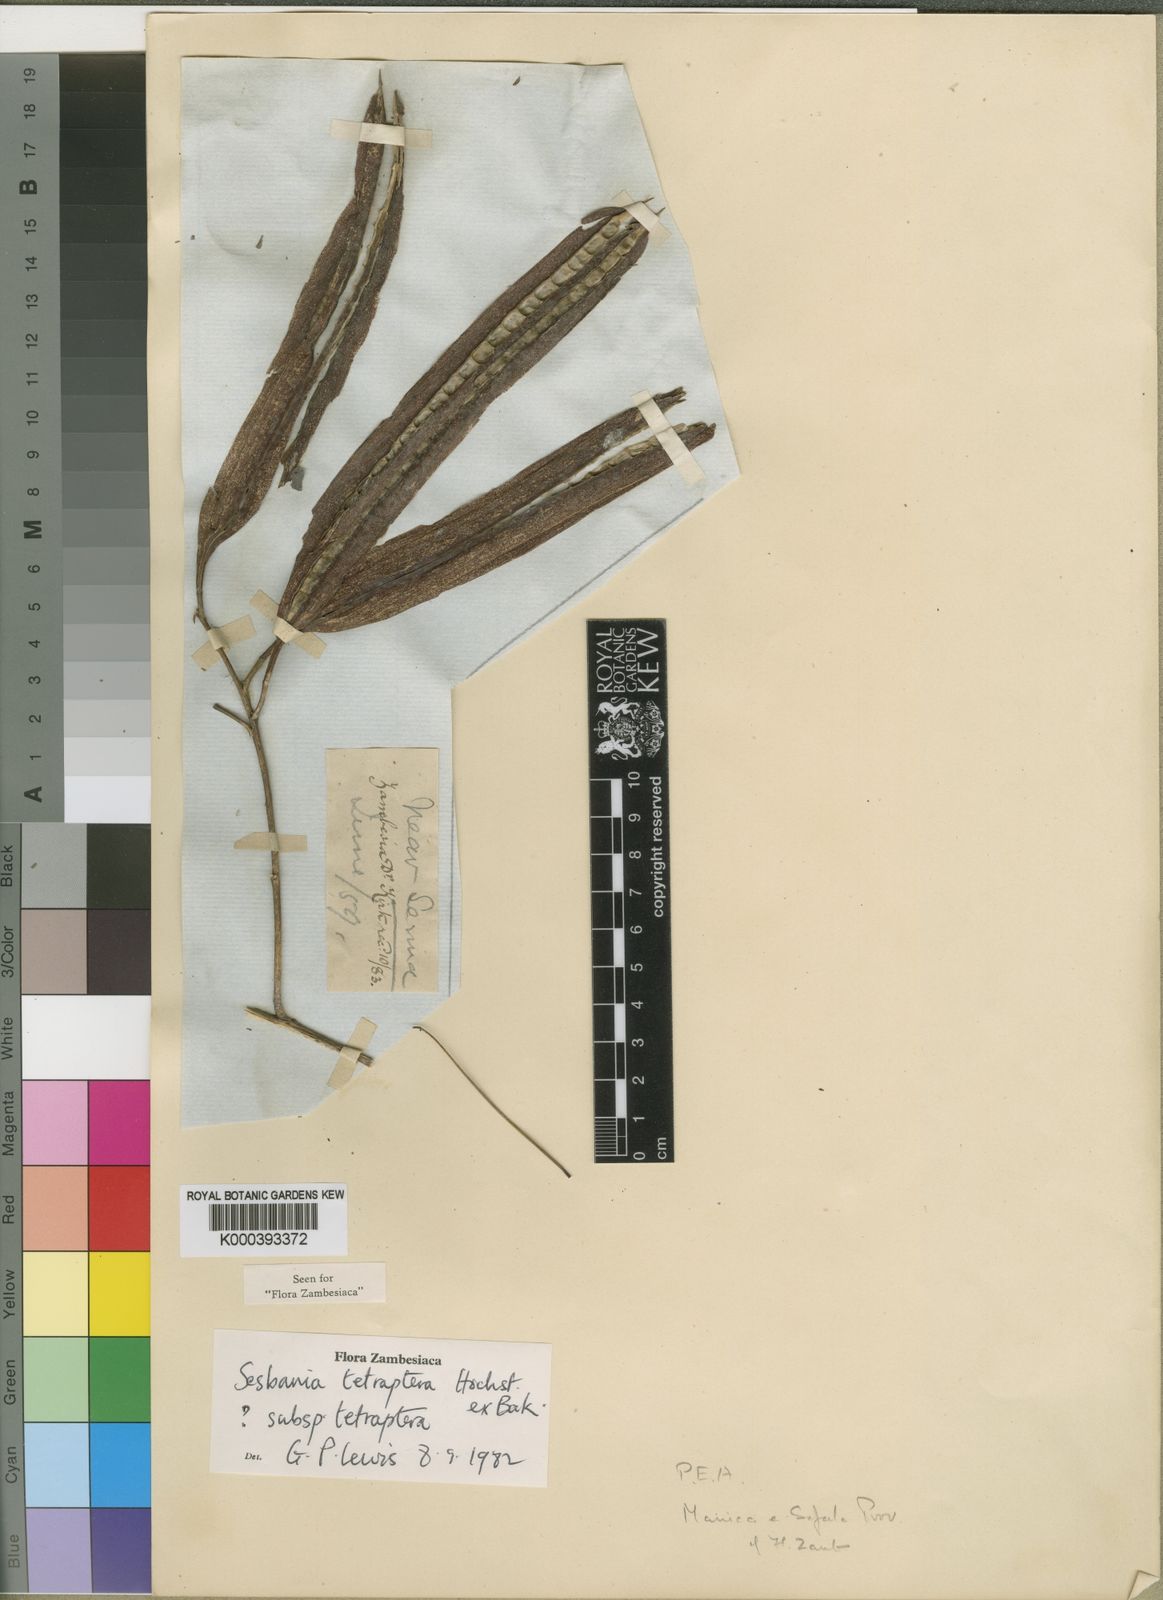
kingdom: Plantae
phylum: Tracheophyta
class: Magnoliopsida
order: Fabales
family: Fabaceae
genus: Sesbania
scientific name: Sesbania tetraptera
